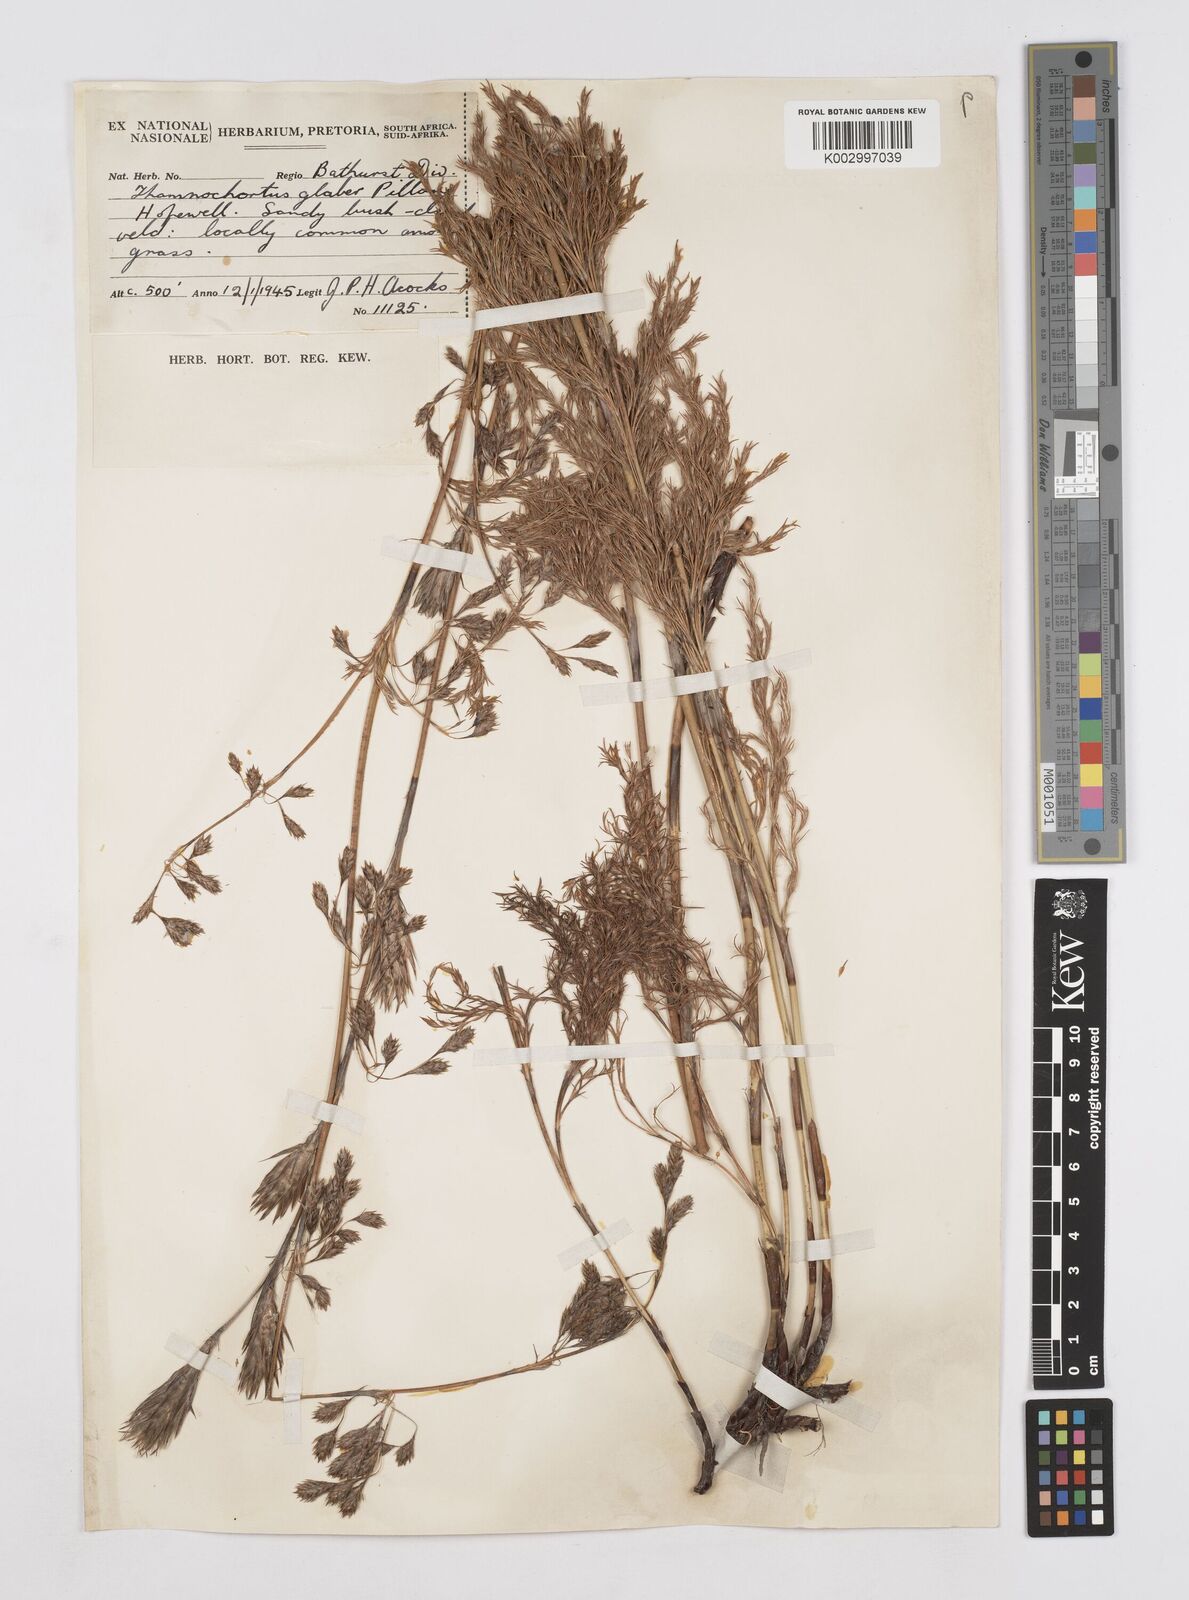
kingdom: Plantae
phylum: Tracheophyta
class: Liliopsida
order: Poales
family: Restionaceae
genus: Thamnochortus
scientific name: Thamnochortus glaber
